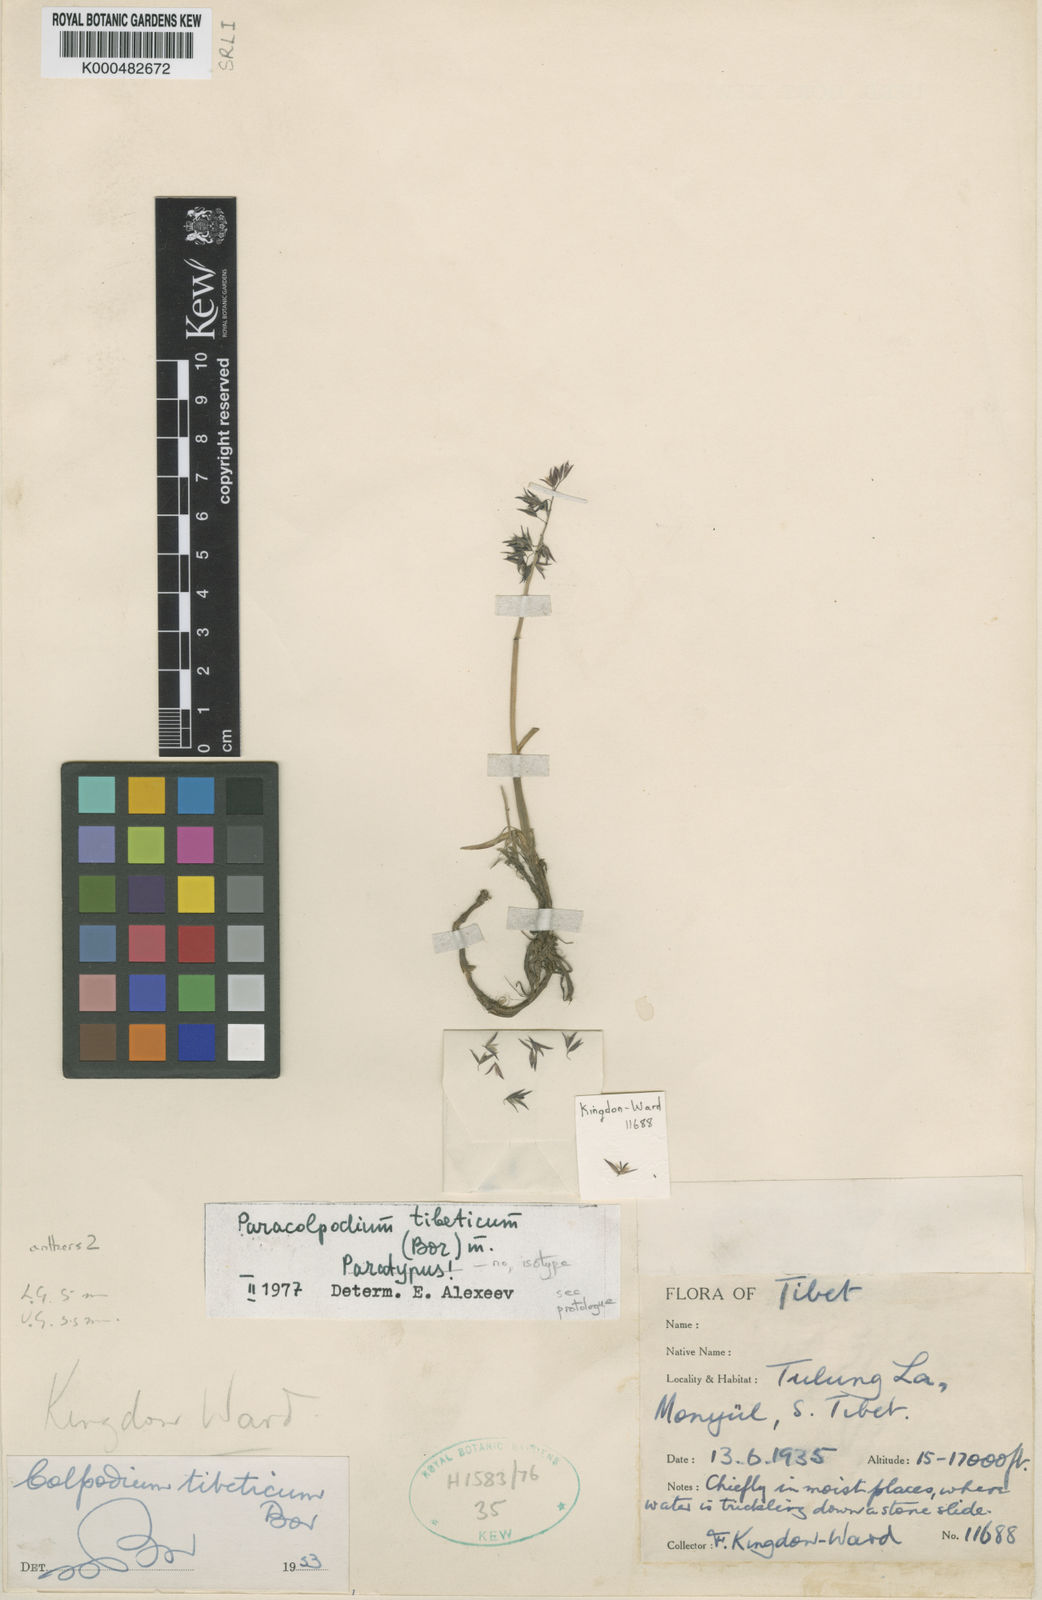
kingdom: Plantae
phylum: Tracheophyta
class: Liliopsida
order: Poales
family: Poaceae
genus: Paracolpodium
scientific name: Paracolpodium tibeticum
